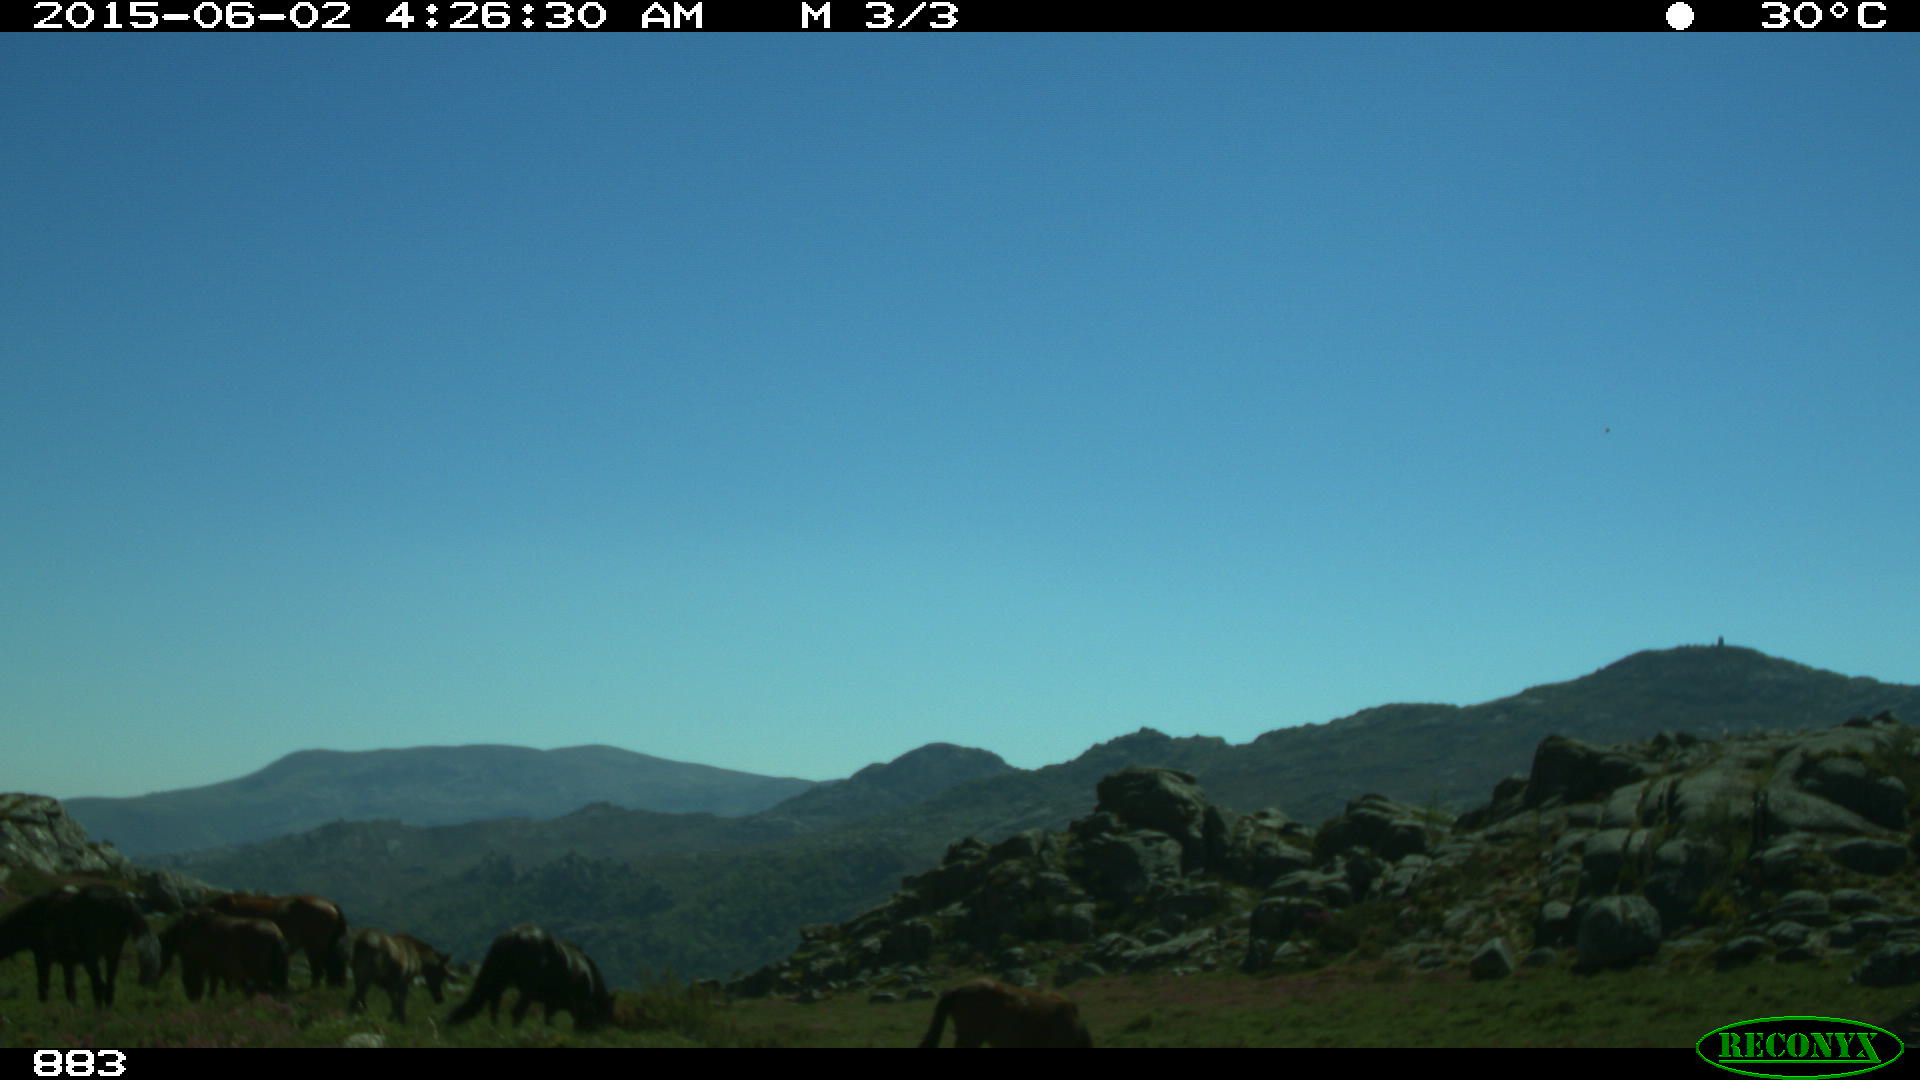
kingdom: Animalia
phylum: Chordata
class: Mammalia
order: Perissodactyla
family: Equidae
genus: Equus
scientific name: Equus caballus
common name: Horse
